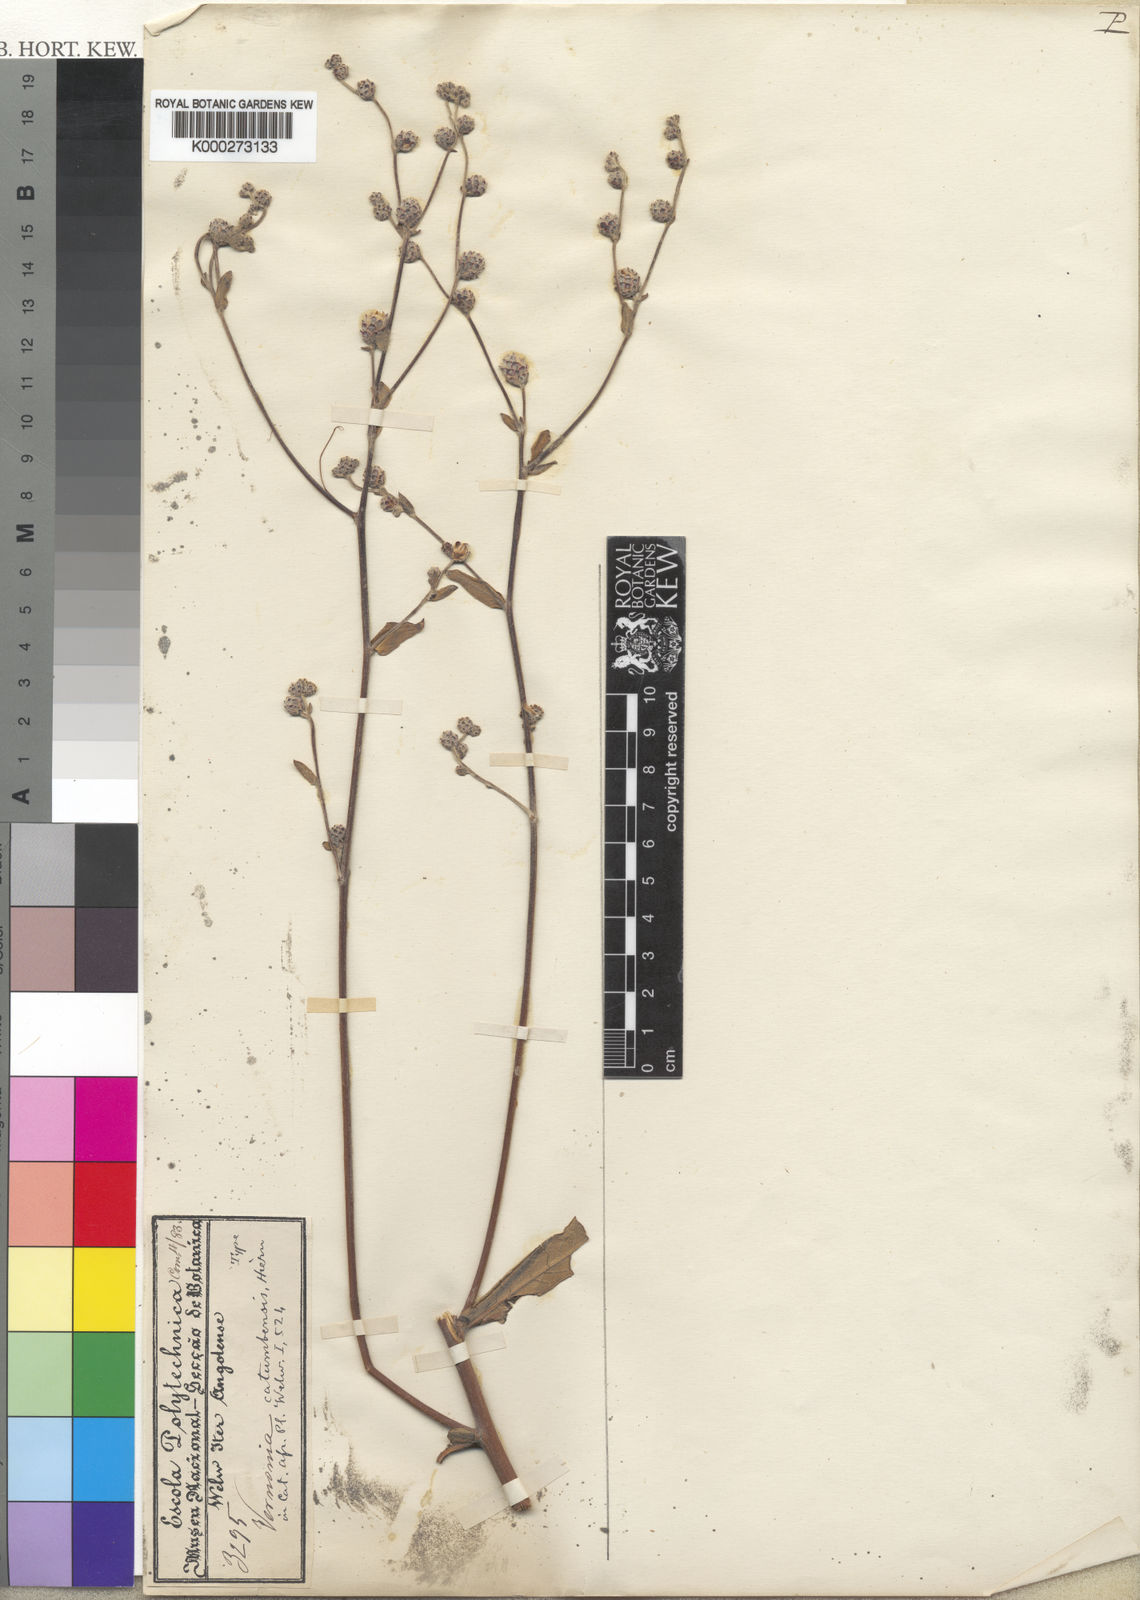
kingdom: Plantae
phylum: Tracheophyta
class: Magnoliopsida
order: Asterales
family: Asteraceae
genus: Orbivestus
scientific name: Orbivestus catumbensis
